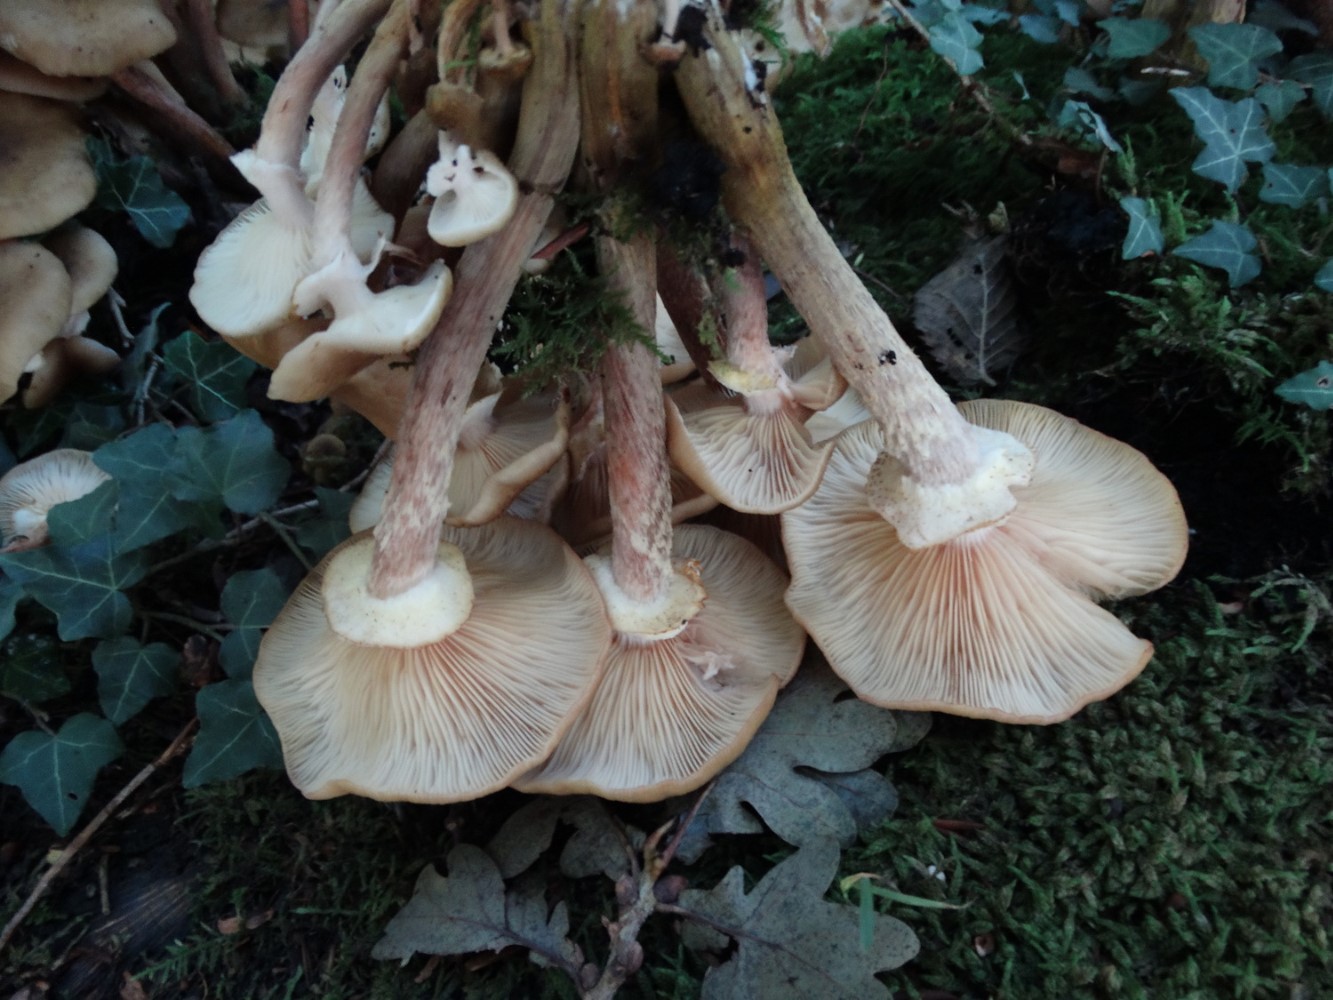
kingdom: Fungi
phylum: Basidiomycota
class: Agaricomycetes
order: Agaricales
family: Physalacriaceae
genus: Armillaria
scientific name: Armillaria mellea
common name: ægte honningsvamp
